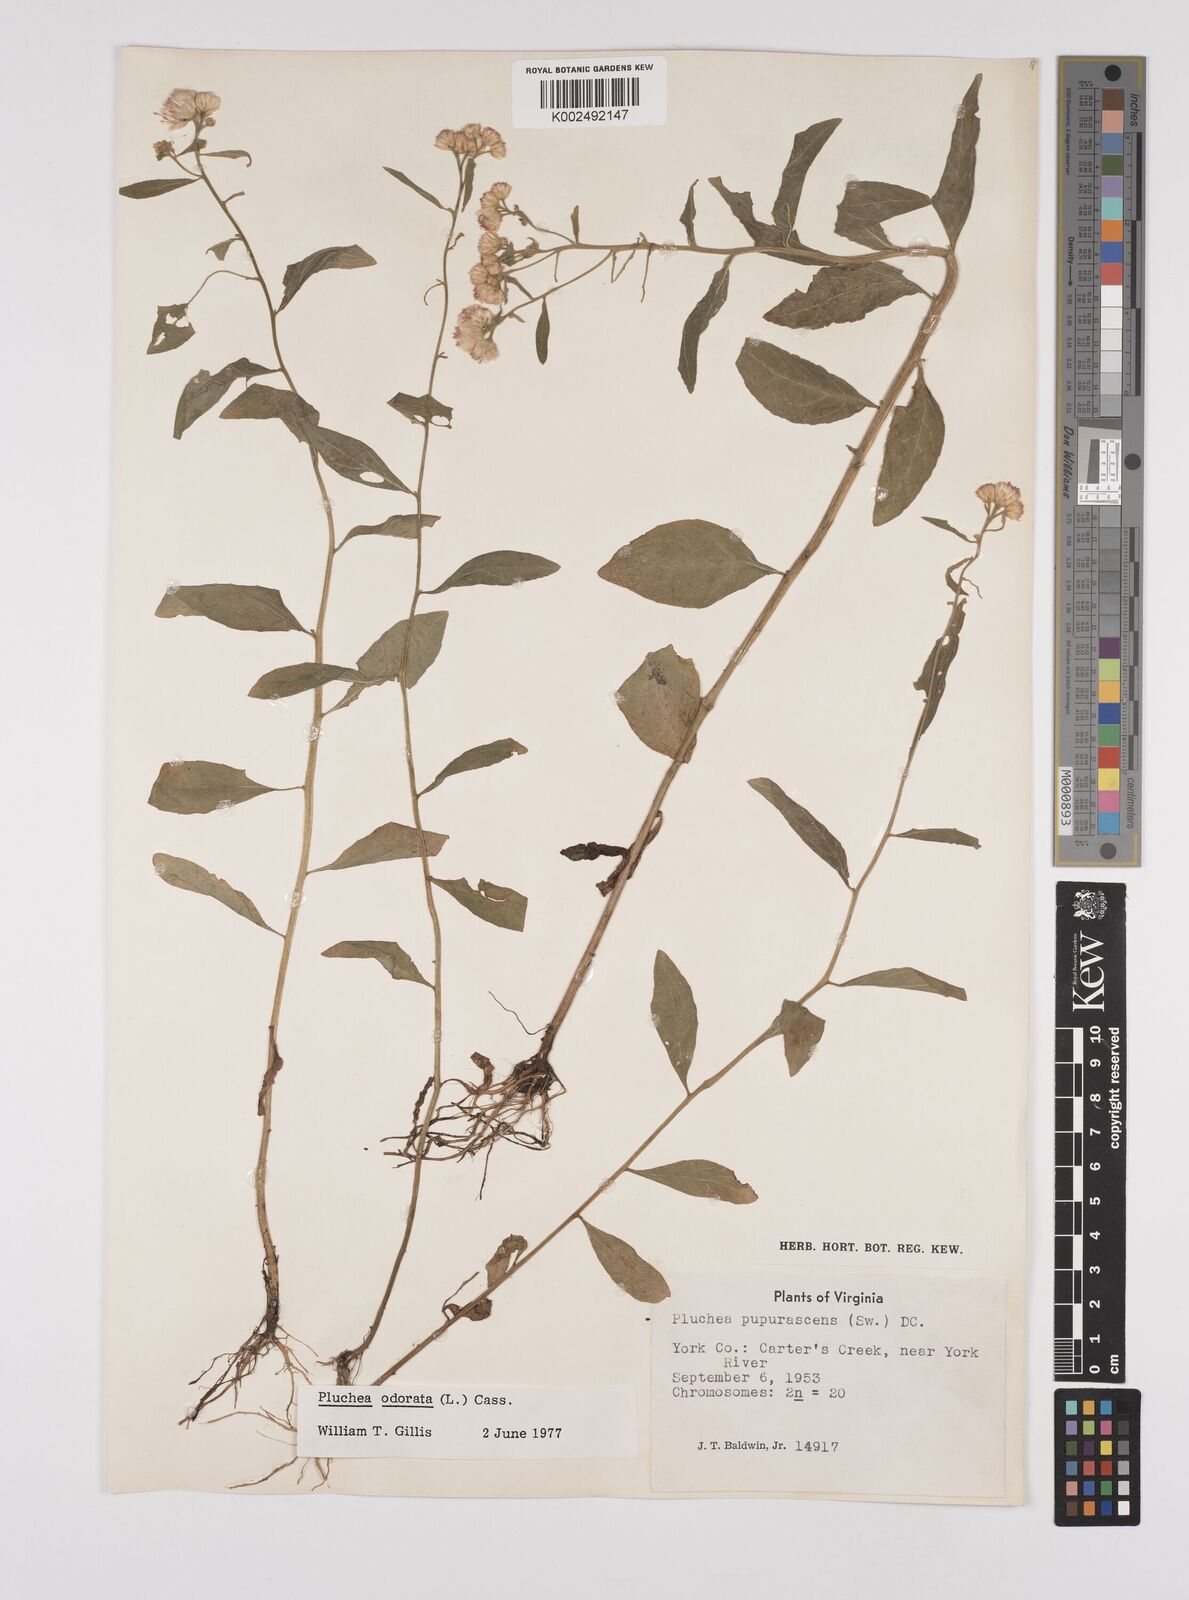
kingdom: Plantae
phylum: Tracheophyta
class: Magnoliopsida
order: Asterales
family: Asteraceae
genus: Pluchea
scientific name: Pluchea odorata
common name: Saltmarsh fleabane
